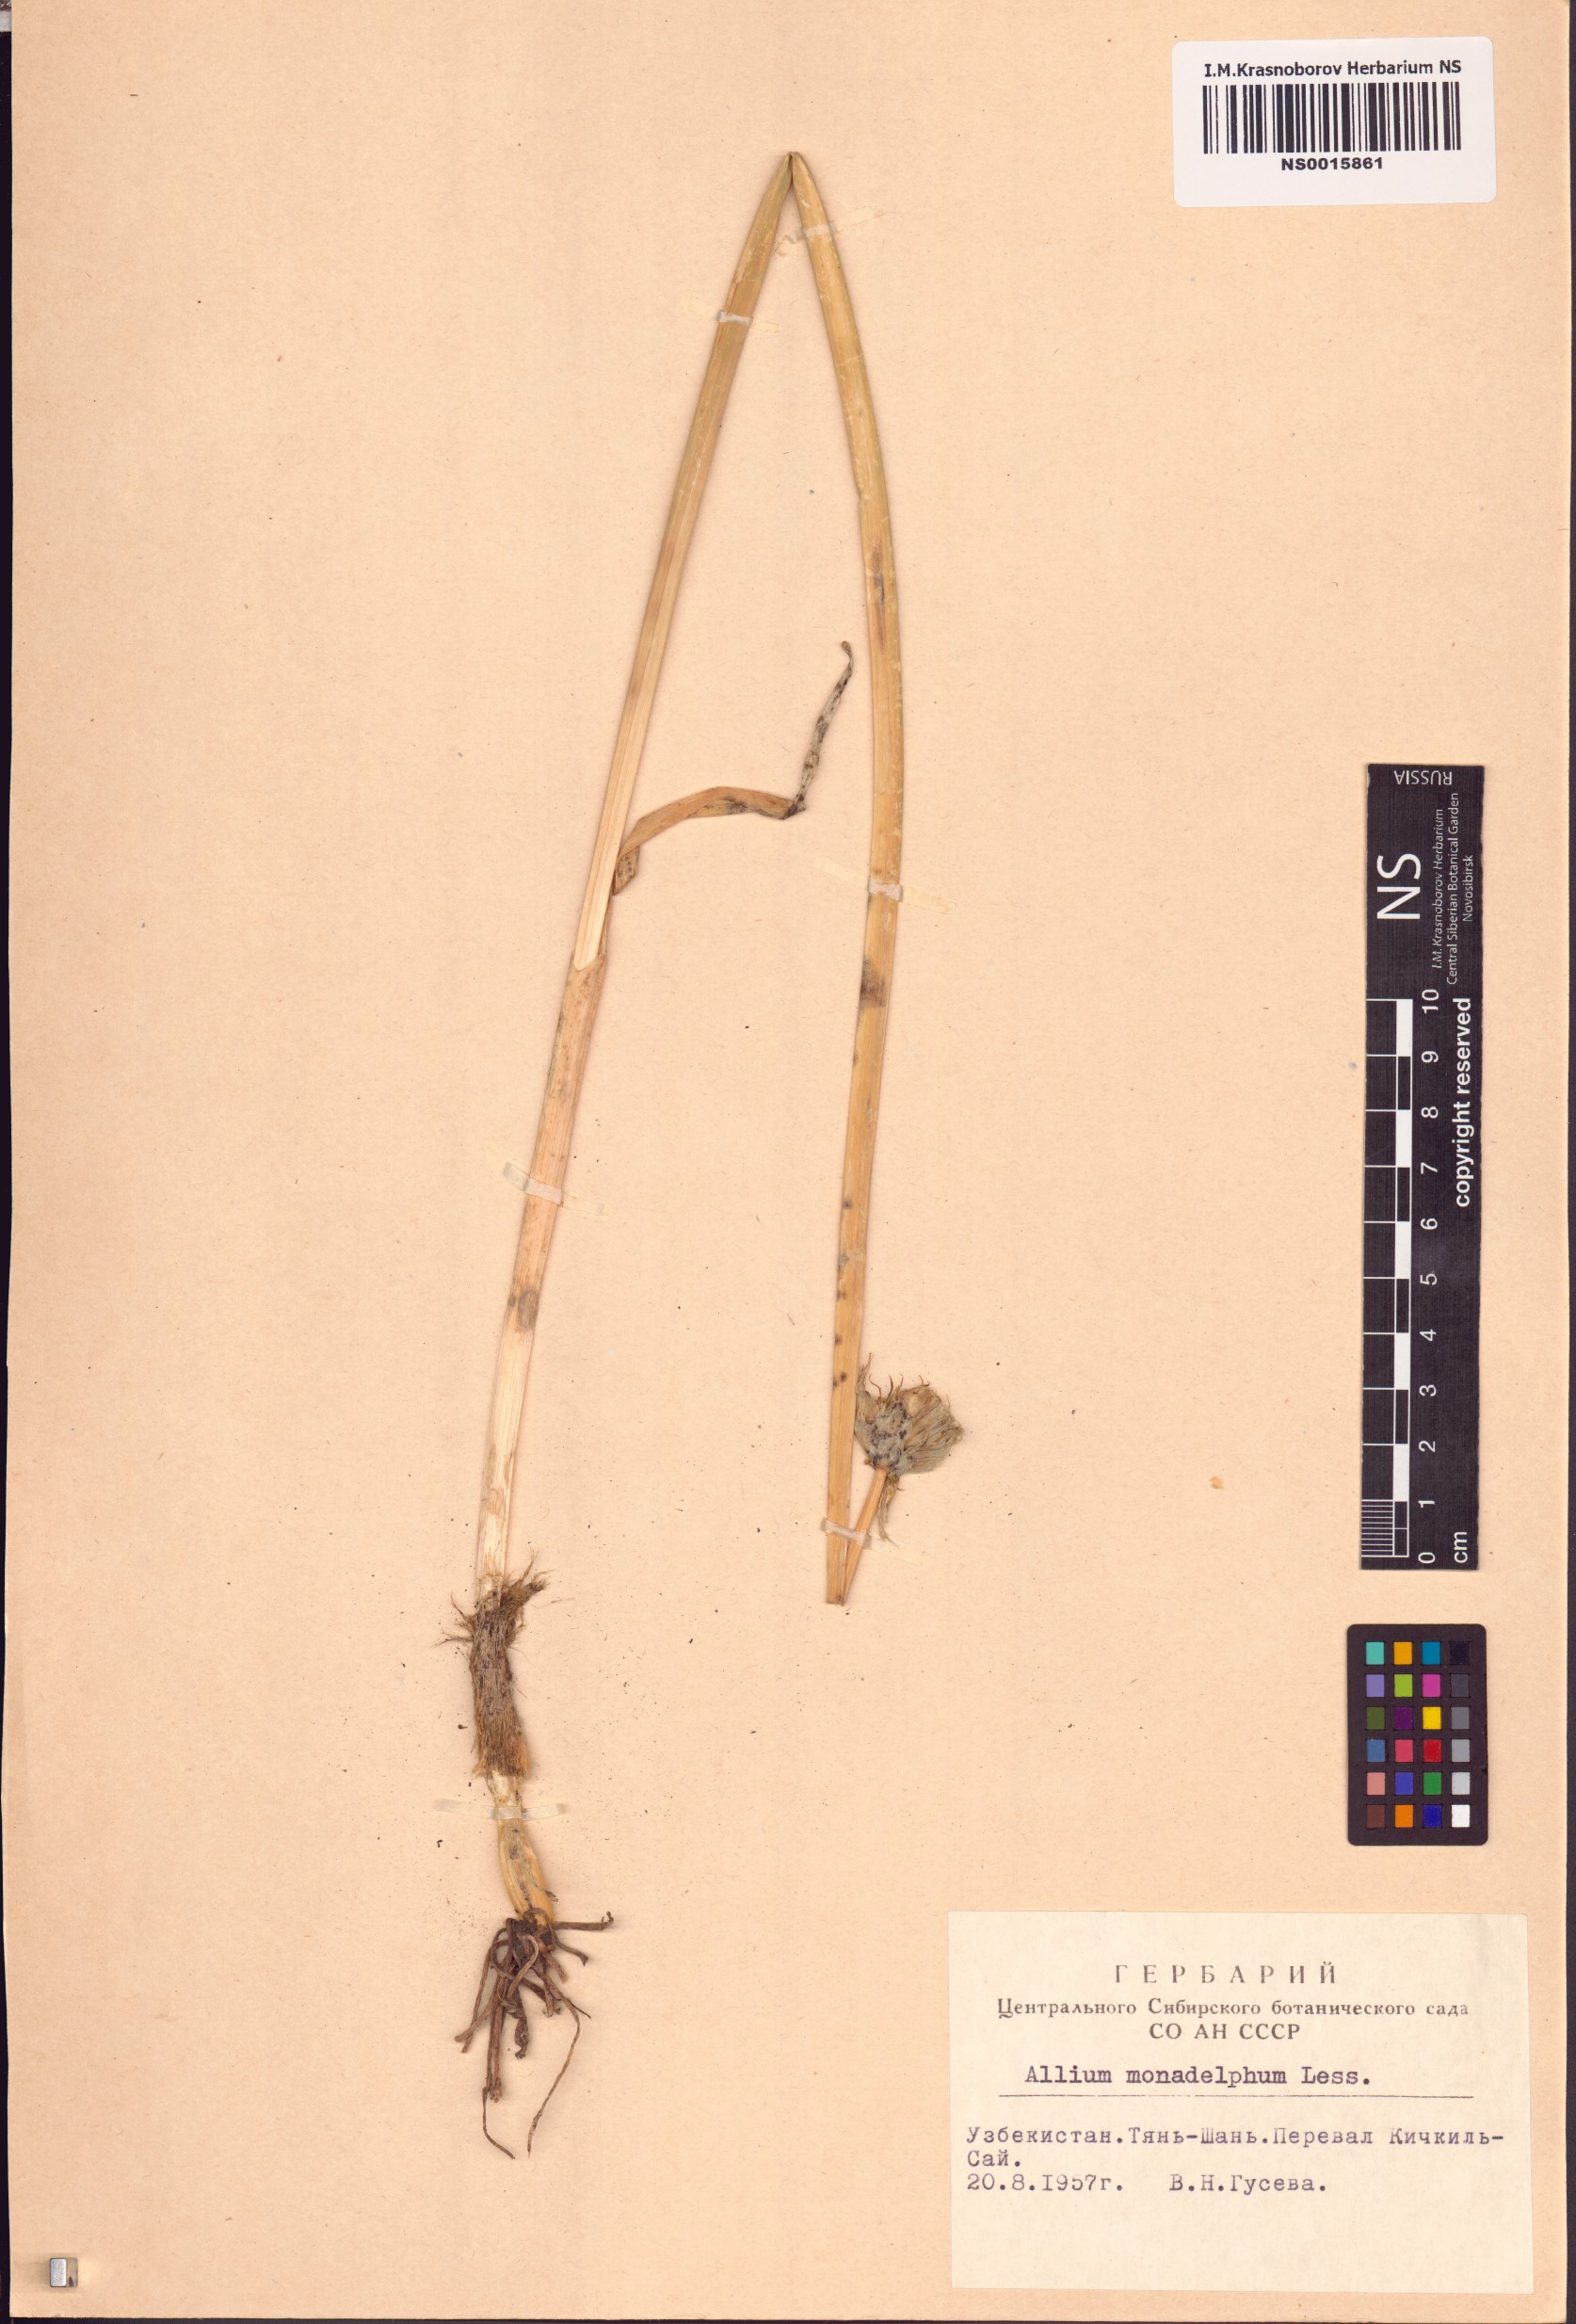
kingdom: Plantae
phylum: Tracheophyta
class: Liliopsida
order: Asparagales
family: Amaryllidaceae
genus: Allium
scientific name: Allium atrosanguineum
